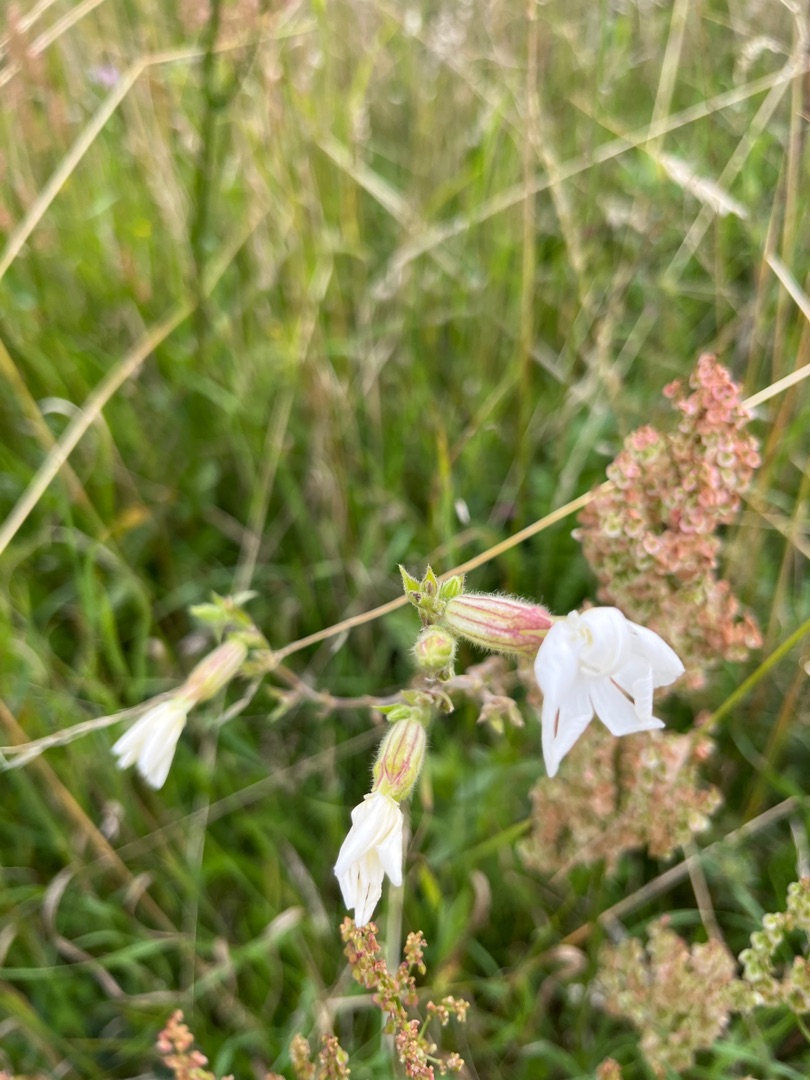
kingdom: Plantae
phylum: Tracheophyta
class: Magnoliopsida
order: Caryophyllales
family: Caryophyllaceae
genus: Silene
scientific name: Silene latifolia
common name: Aftenpragtstjerne
